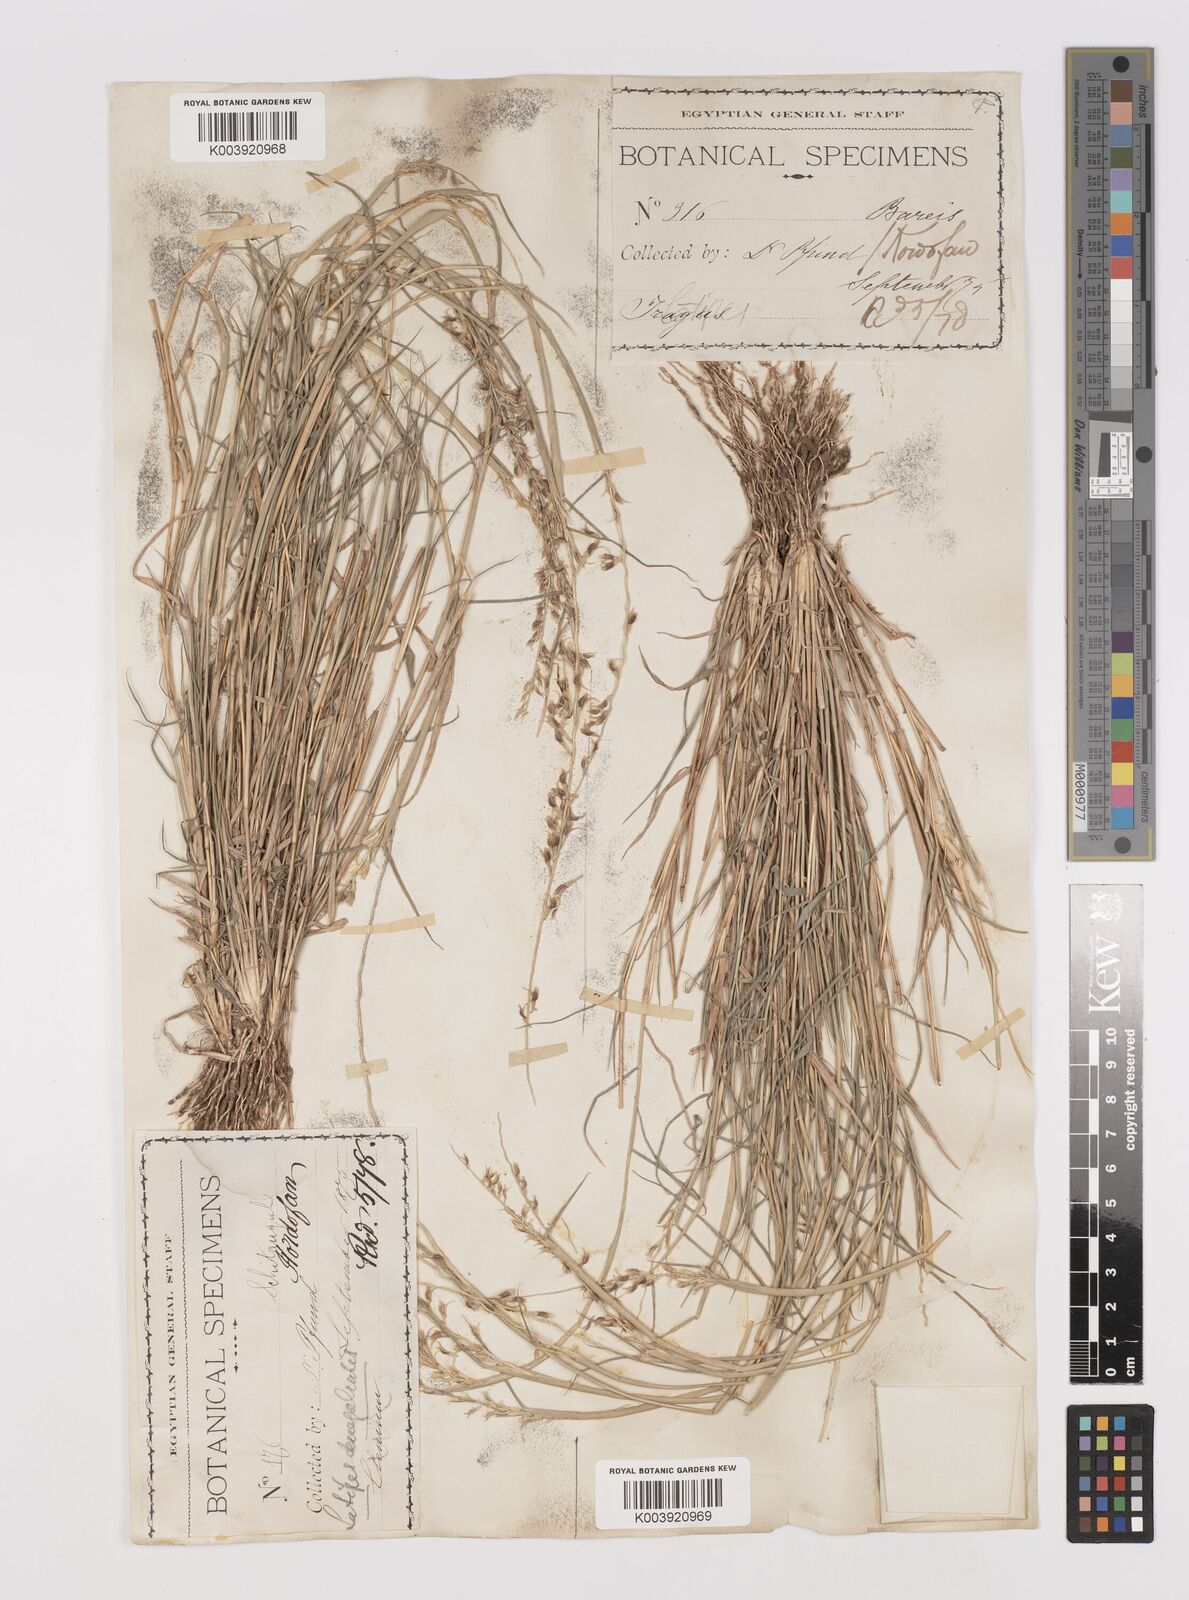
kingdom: Plantae
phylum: Tracheophyta
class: Liliopsida
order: Poales
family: Poaceae
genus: Leptothrium
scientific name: Leptothrium senegalense
